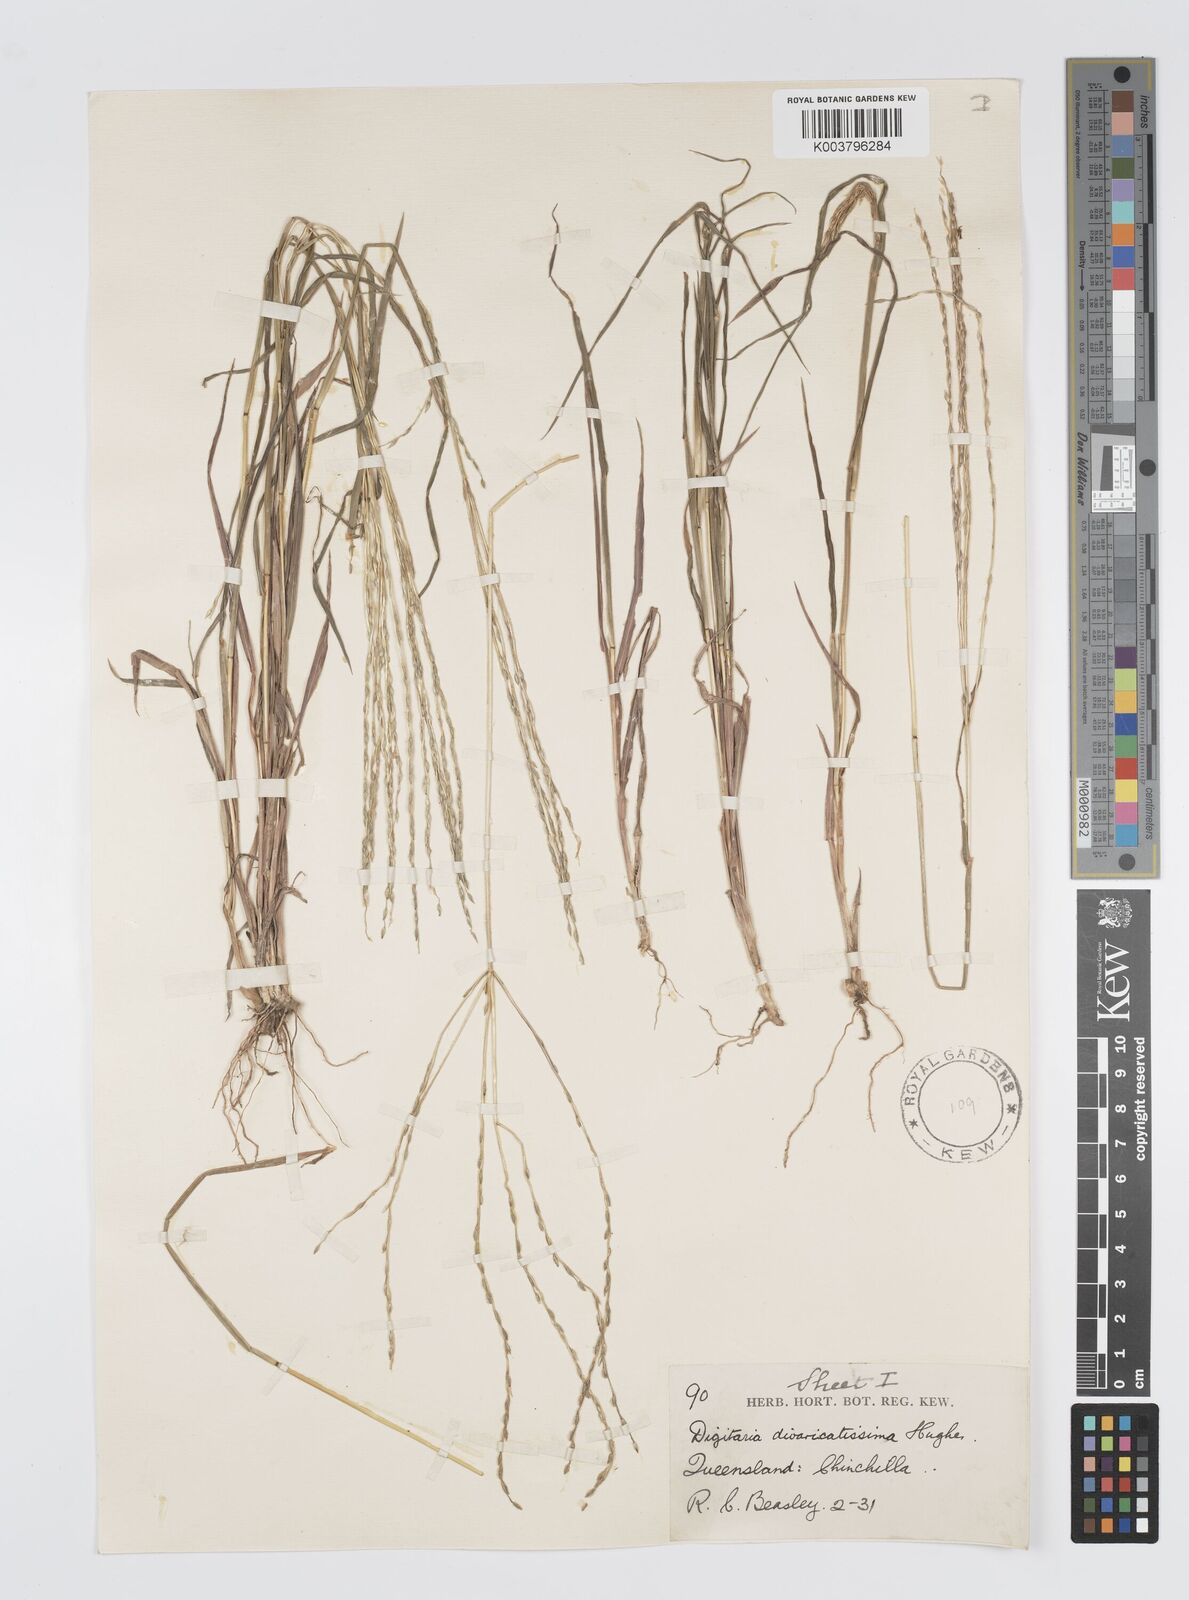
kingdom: Plantae
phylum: Tracheophyta
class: Liliopsida
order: Poales
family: Poaceae
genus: Digitaria
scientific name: Digitaria divaricatissima
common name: Crabgrass
